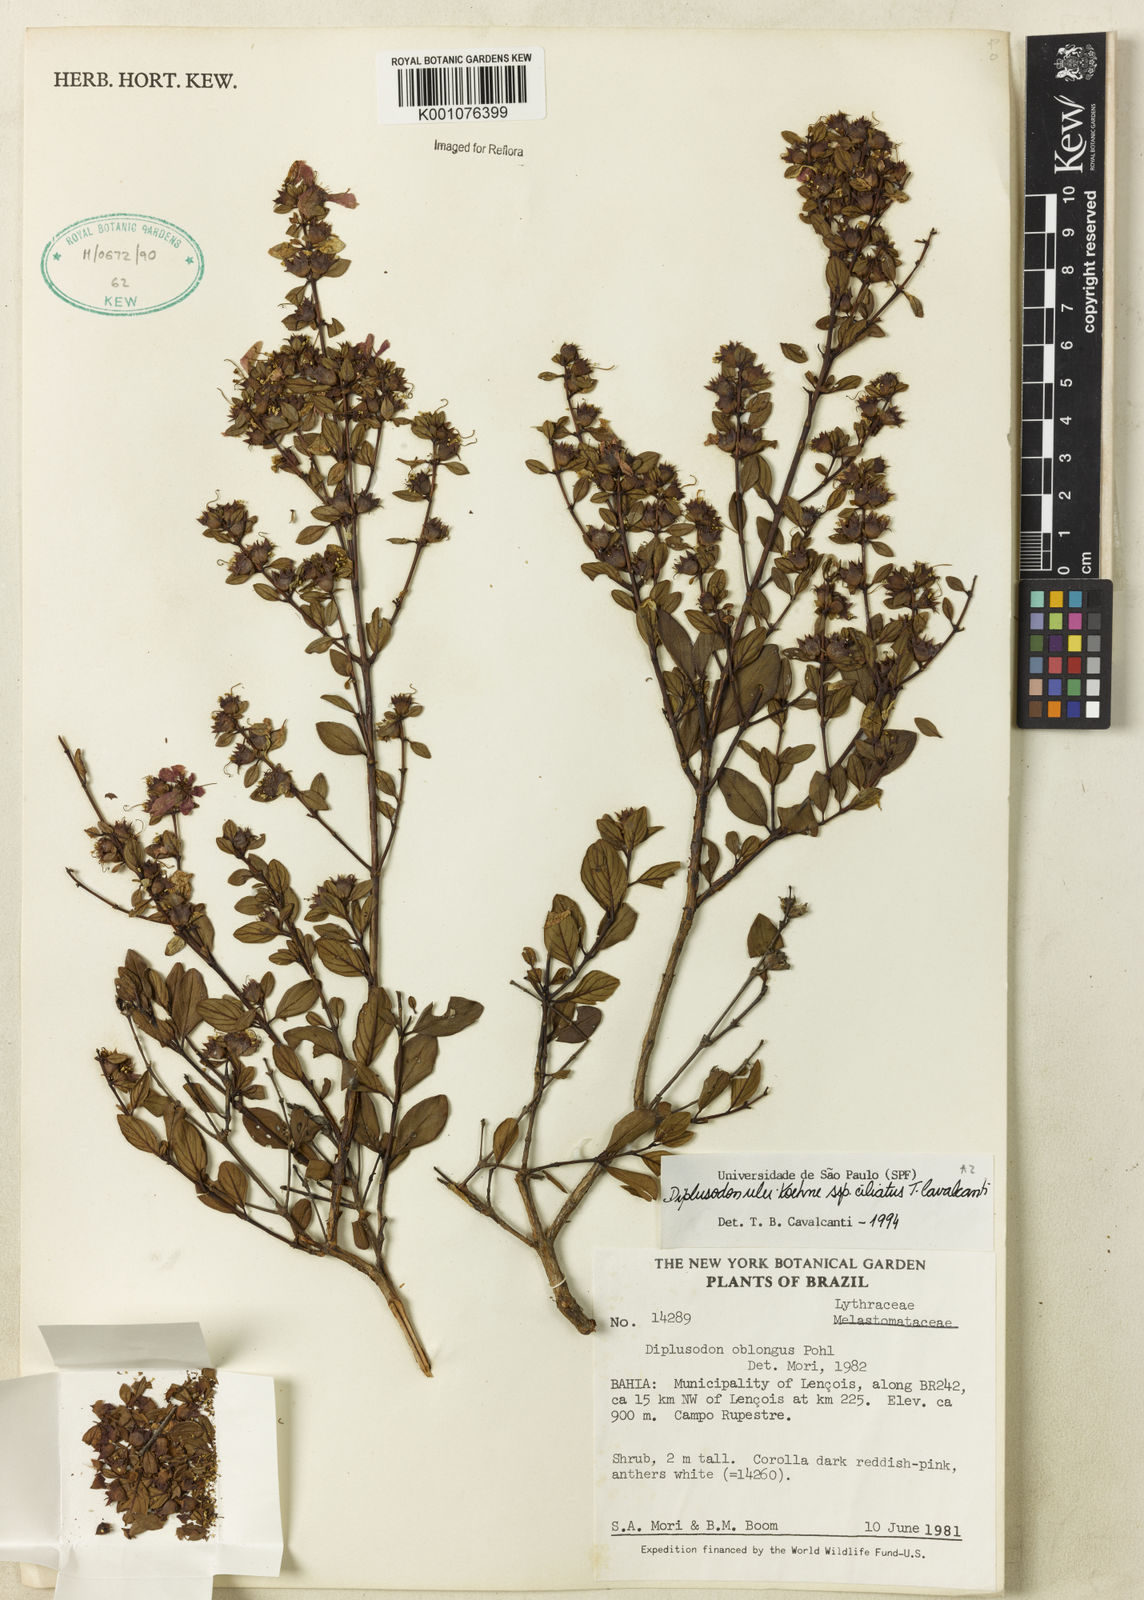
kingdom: Plantae
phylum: Tracheophyta
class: Magnoliopsida
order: Myrtales
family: Lythraceae
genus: Diplusodon
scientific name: Diplusodon ciliatus
